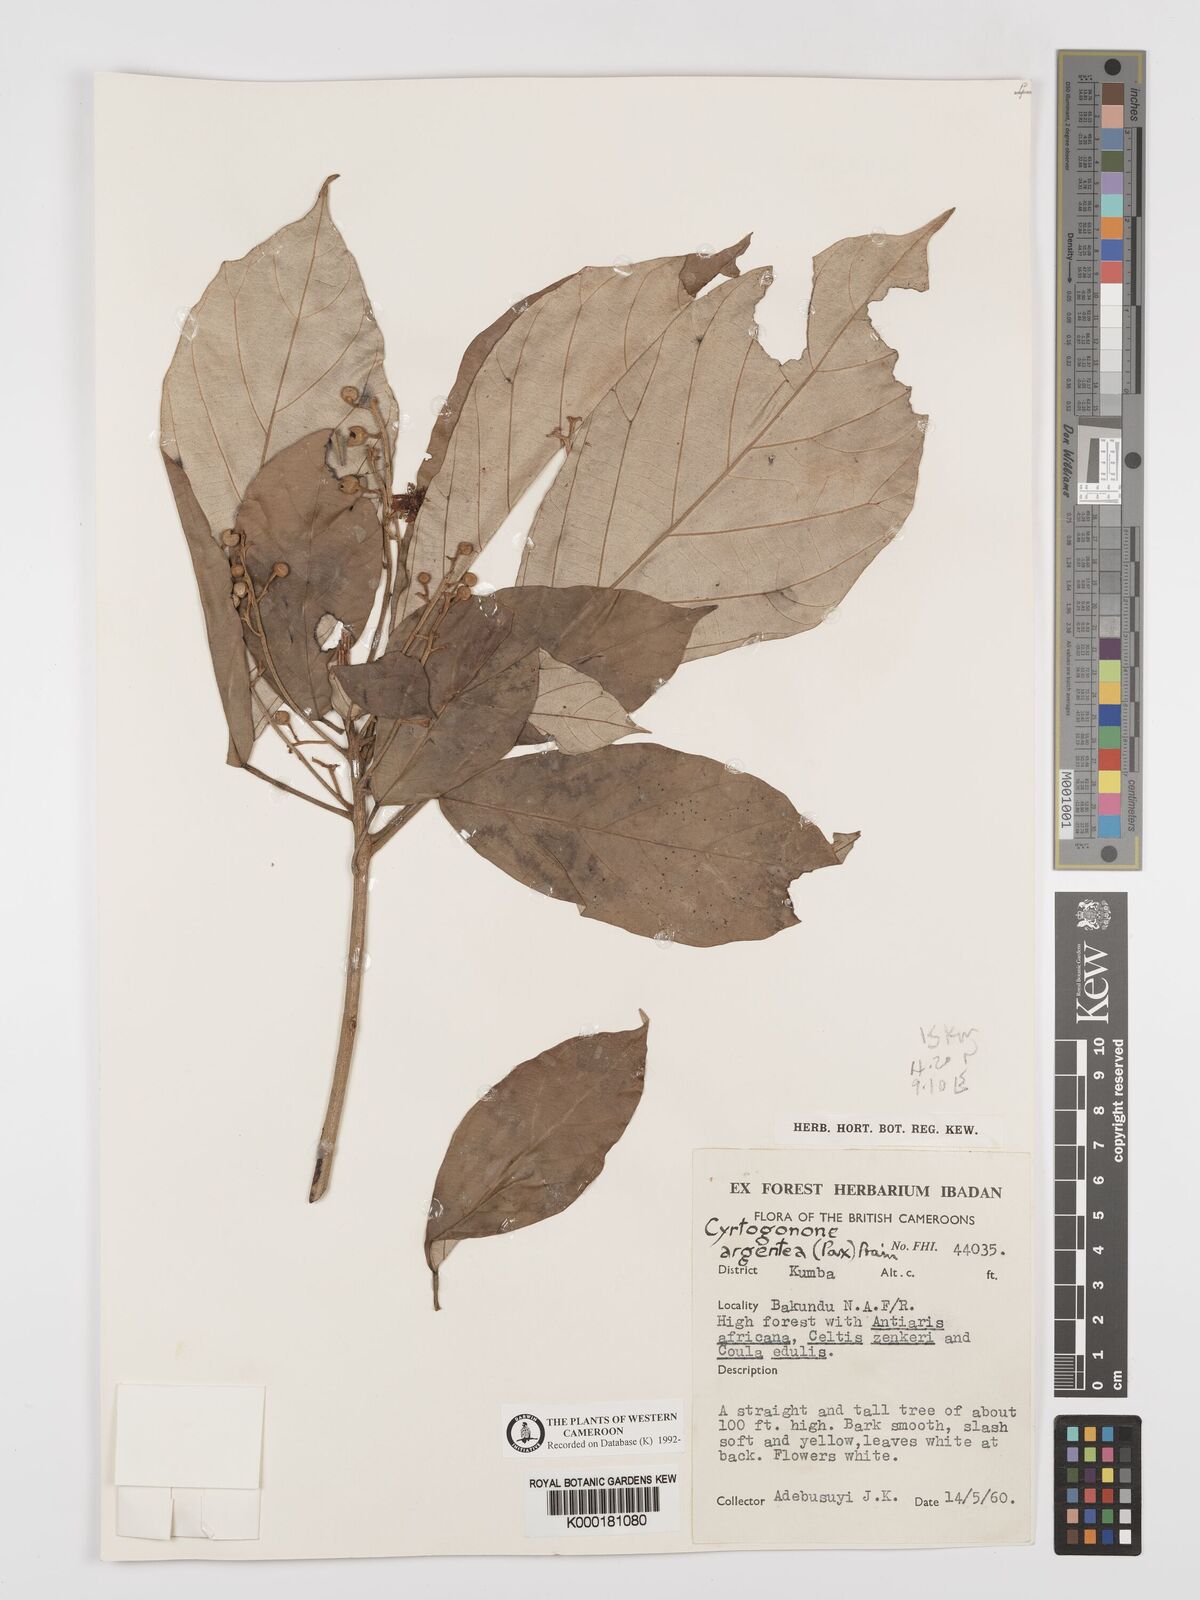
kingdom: Plantae
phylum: Tracheophyta
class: Magnoliopsida
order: Malpighiales
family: Euphorbiaceae
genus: Cyrtogonone
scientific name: Cyrtogonone argentea
